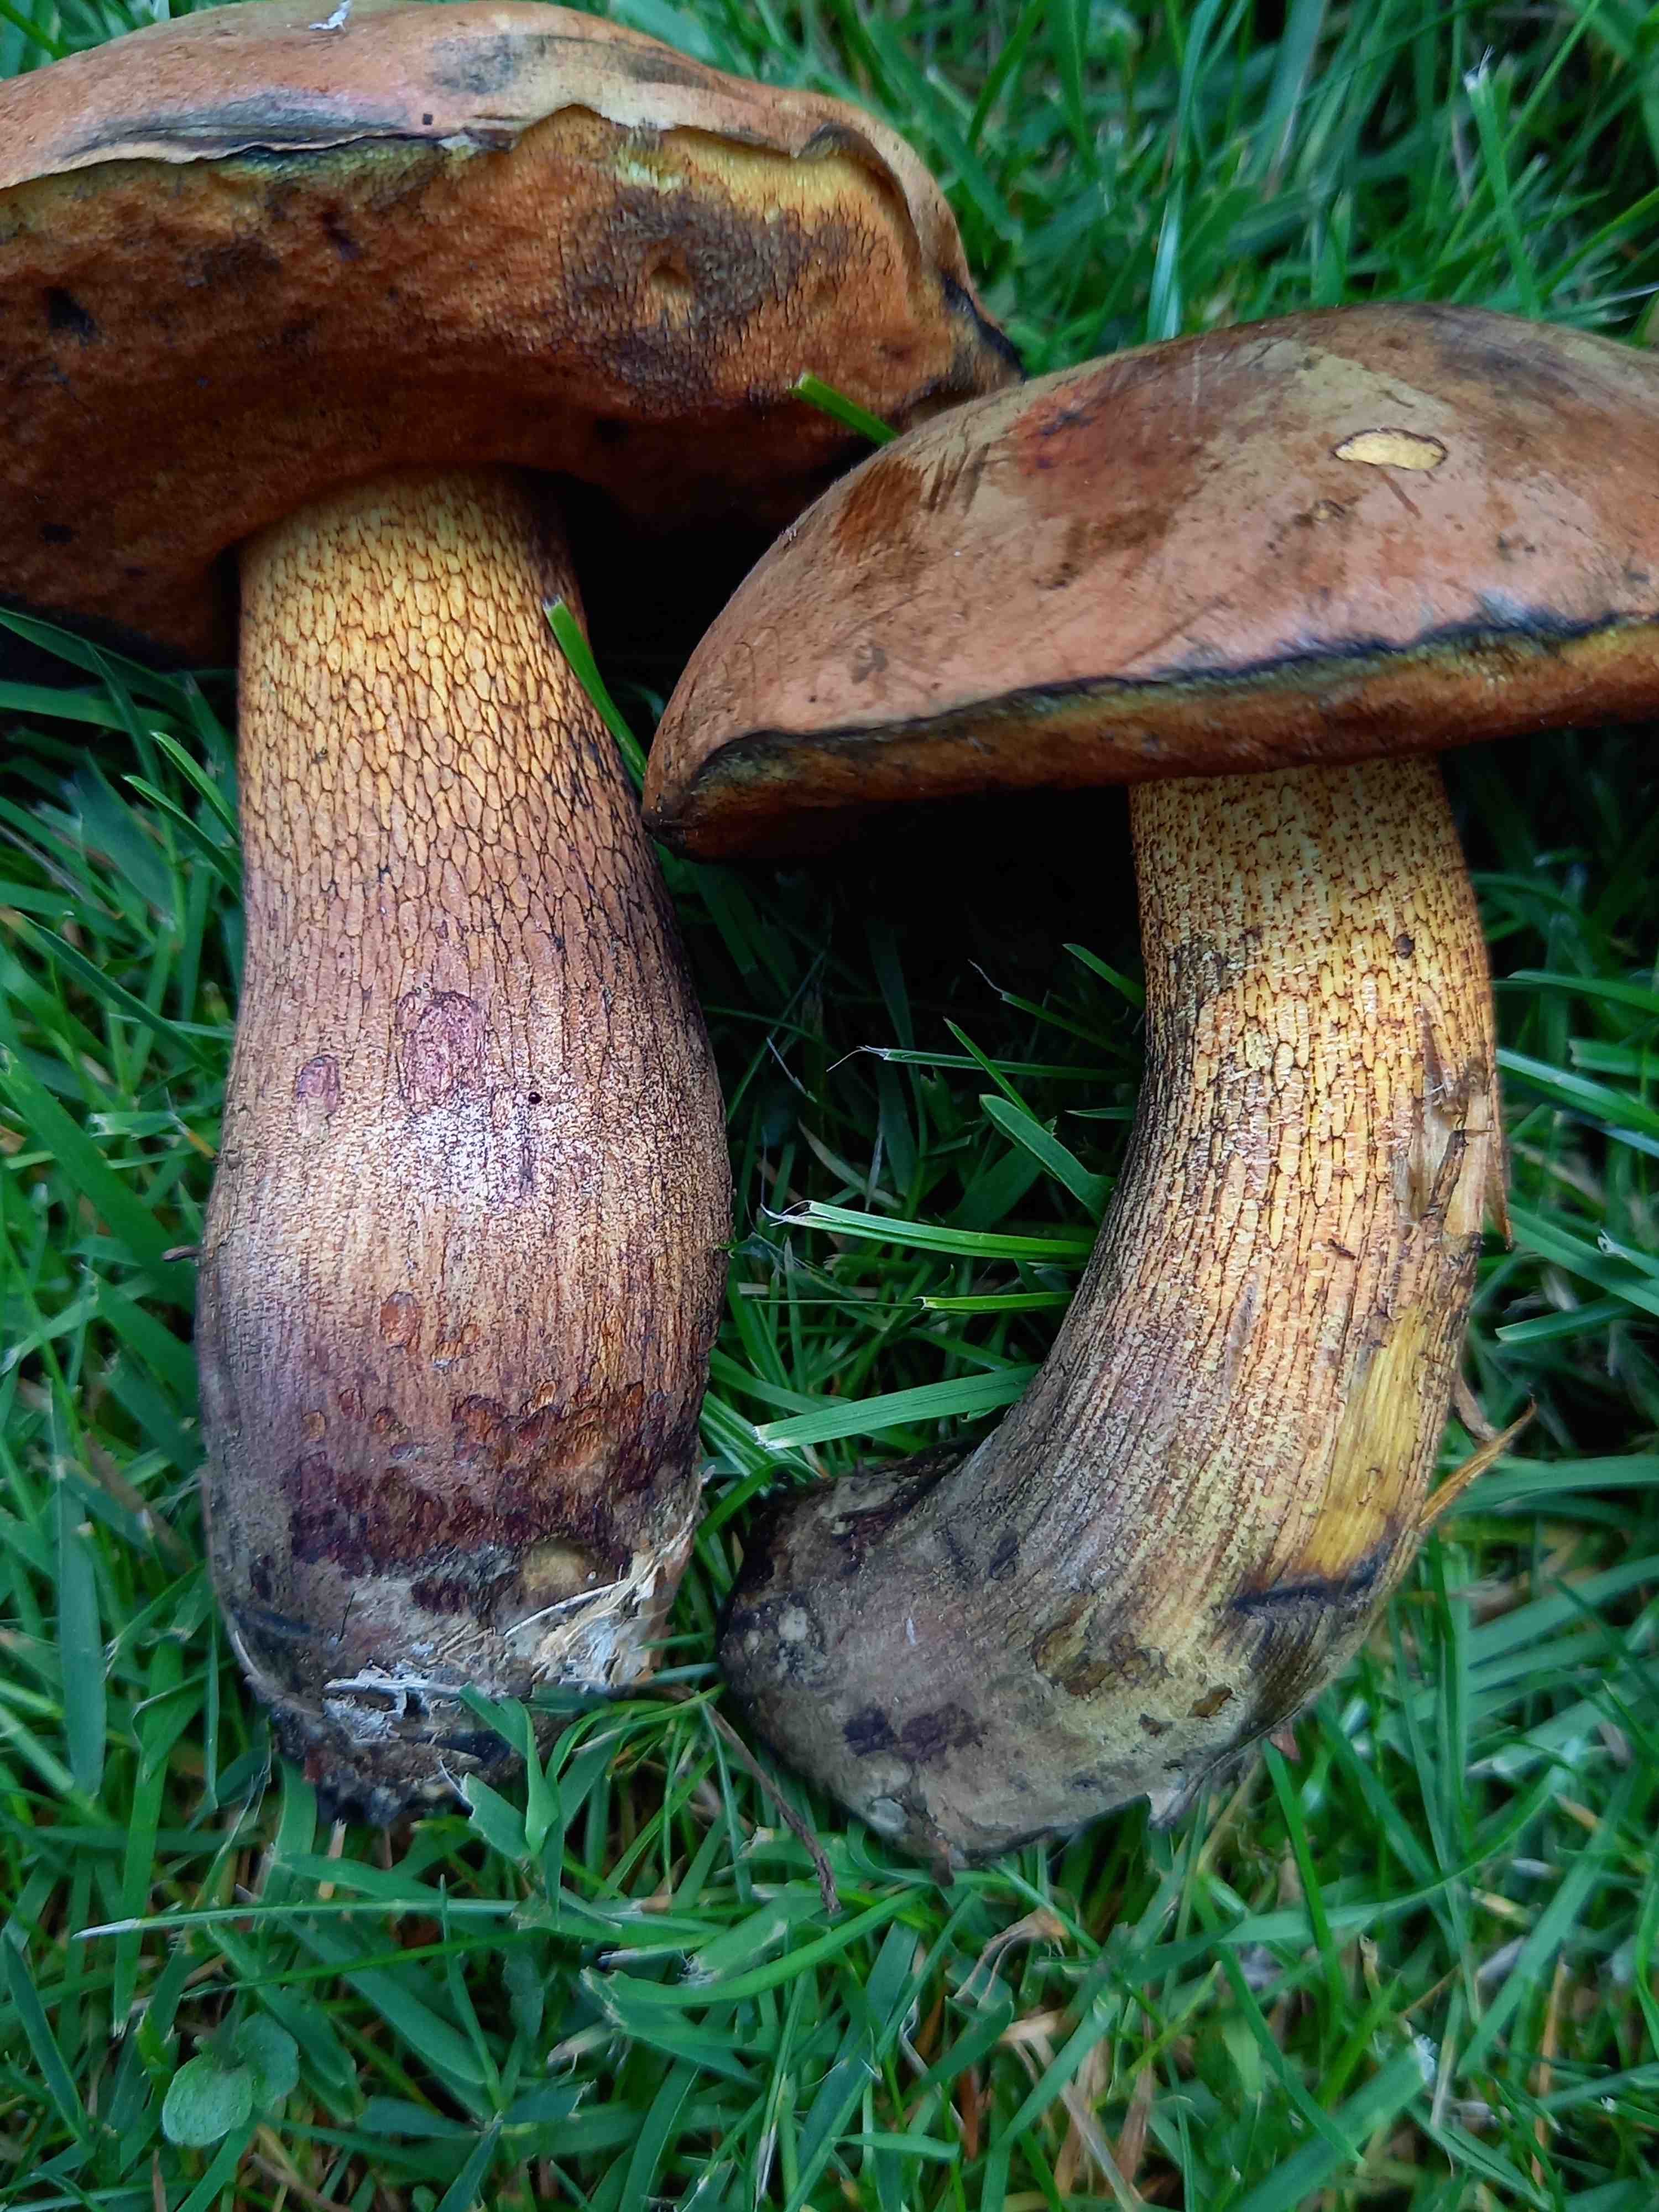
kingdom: Fungi
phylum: Basidiomycota
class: Agaricomycetes
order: Boletales
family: Boletaceae
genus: Suillellus
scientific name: Suillellus luridus
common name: netstokket indigorørhat
